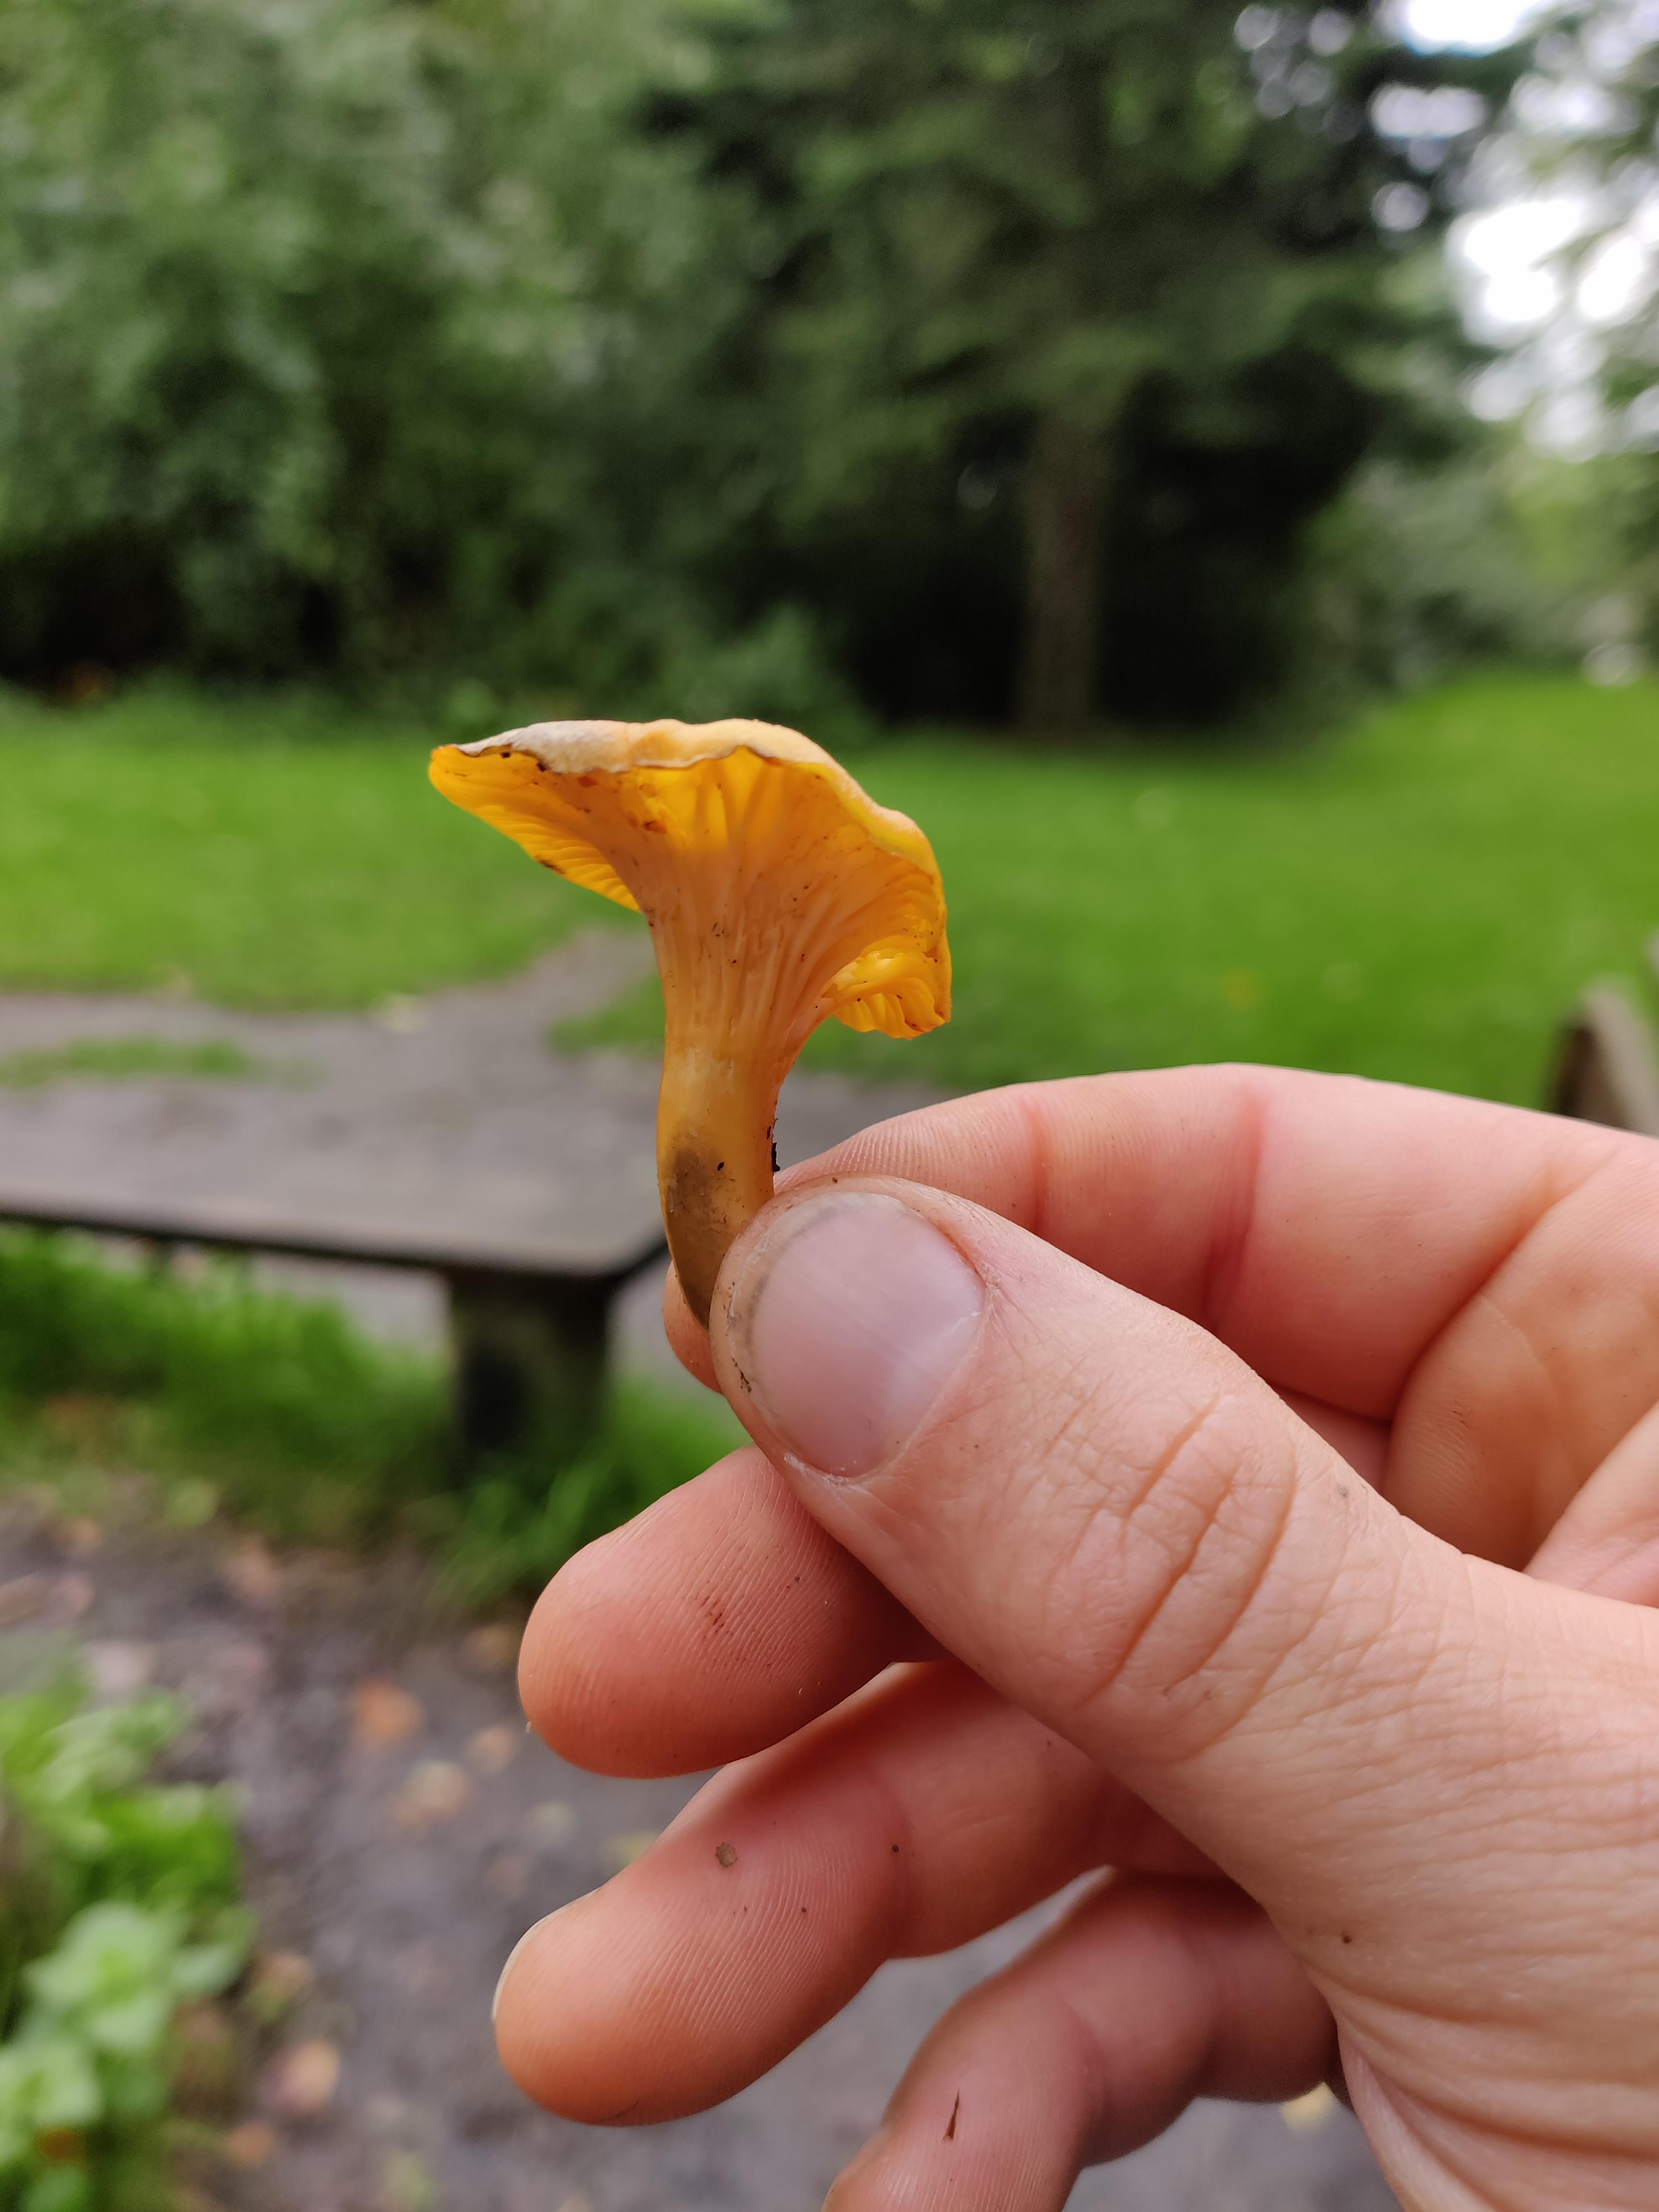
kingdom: Fungi
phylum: Basidiomycota
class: Agaricomycetes
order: Cantharellales
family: Hydnaceae
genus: Cantharellus
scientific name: Cantharellus
